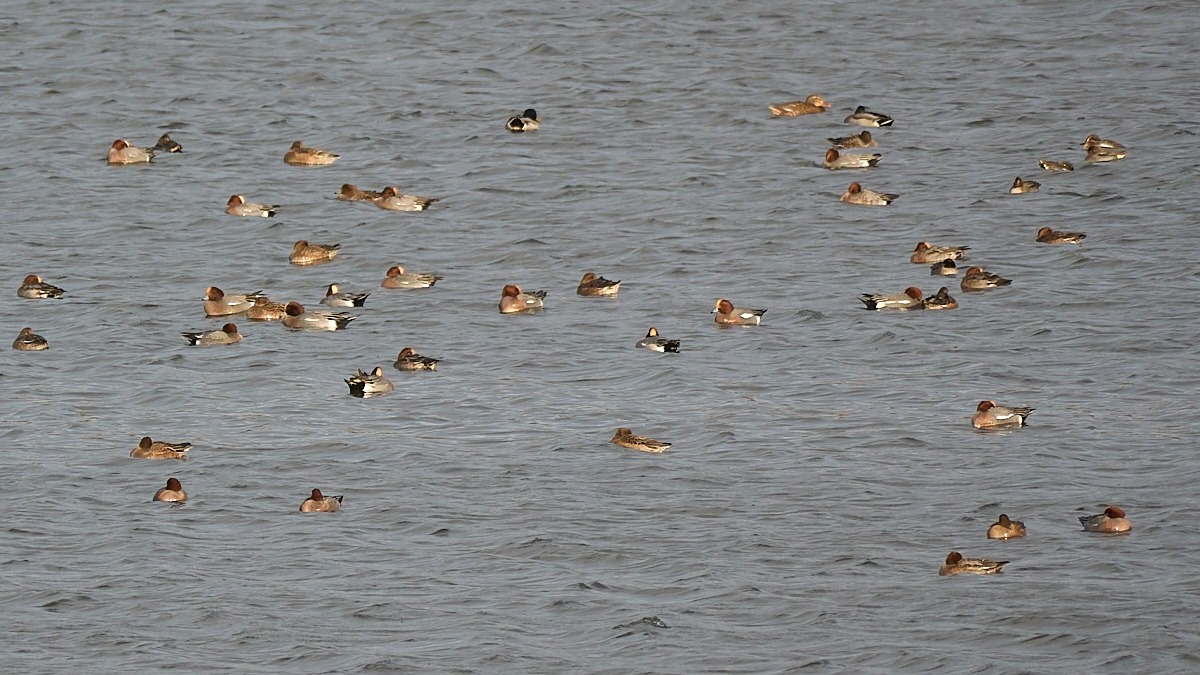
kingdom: Animalia
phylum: Chordata
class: Aves
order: Anseriformes
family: Anatidae
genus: Mareca
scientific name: Mareca penelope
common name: Pibeand
